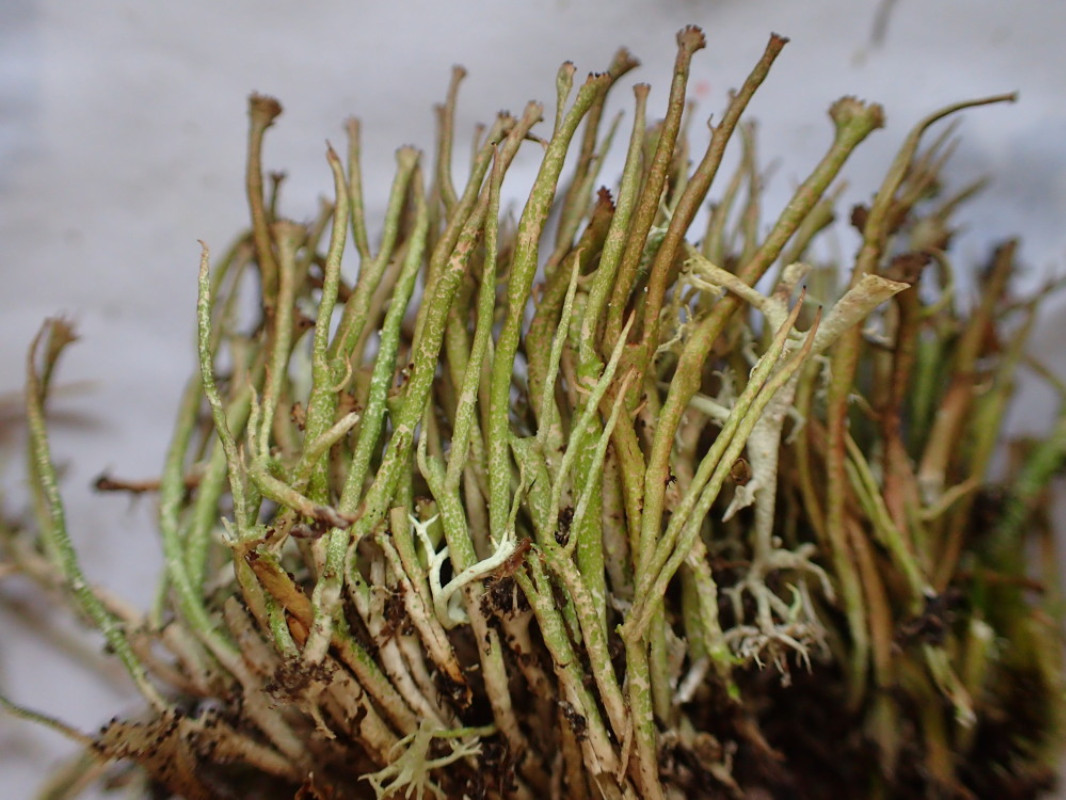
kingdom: Fungi
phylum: Ascomycota
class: Lecanoromycetes
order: Lecanorales
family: Cladoniaceae
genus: Cladonia
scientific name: Cladonia gracilis
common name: slank bægerlav
